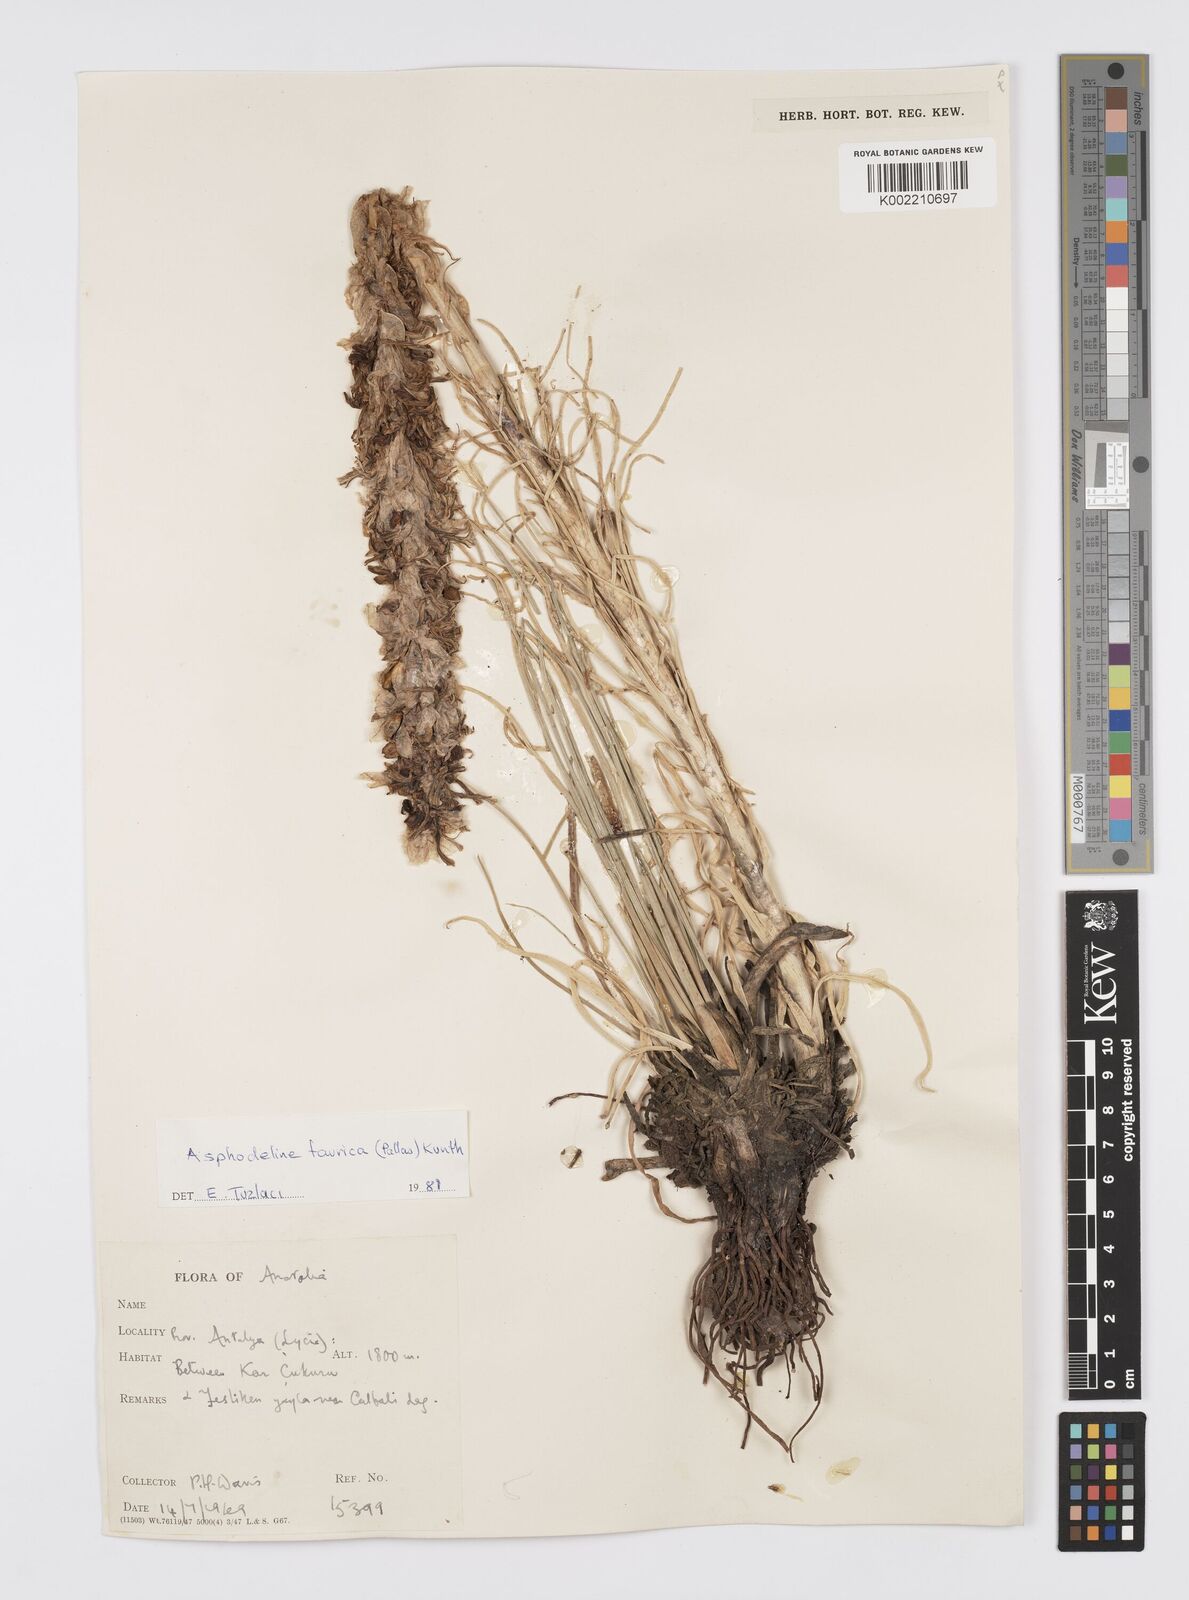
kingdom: Plantae
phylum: Tracheophyta
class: Liliopsida
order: Asparagales
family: Asphodelaceae
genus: Asphodeline
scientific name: Asphodeline taurica
